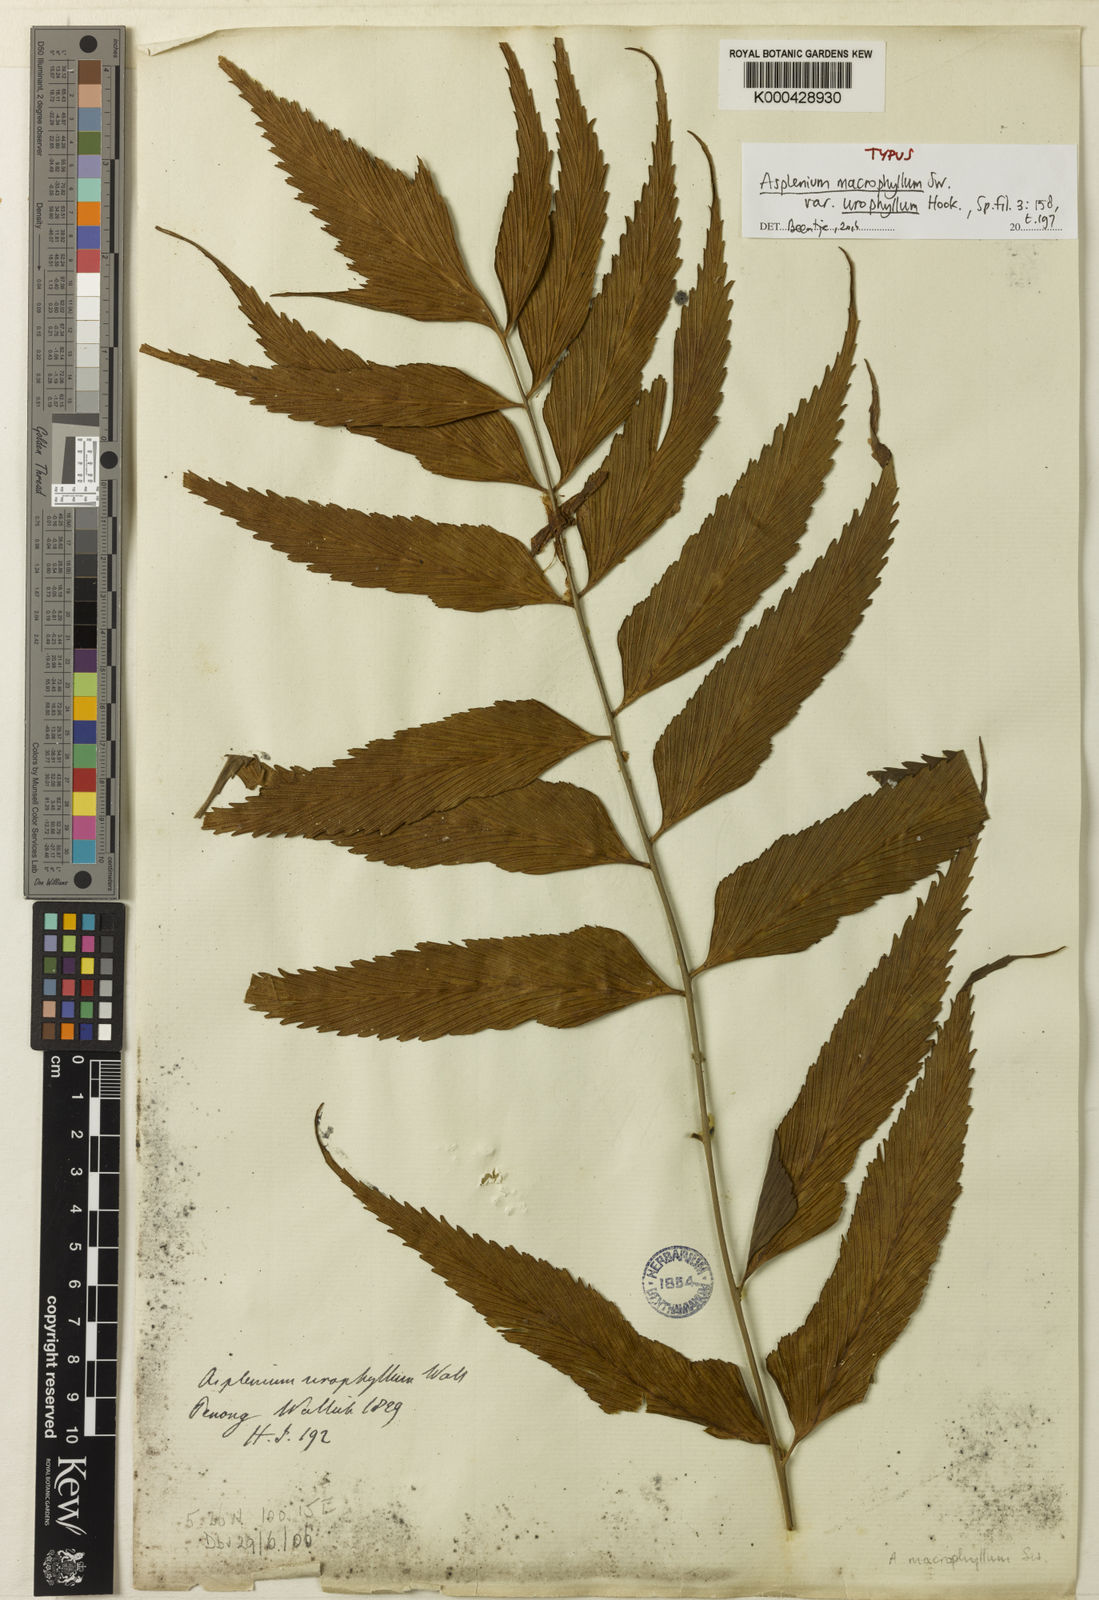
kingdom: Plantae
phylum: Tracheophyta
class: Polypodiopsida
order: Polypodiales
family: Aspleniaceae
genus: Asplenium
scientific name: Asplenium macrophyllum
